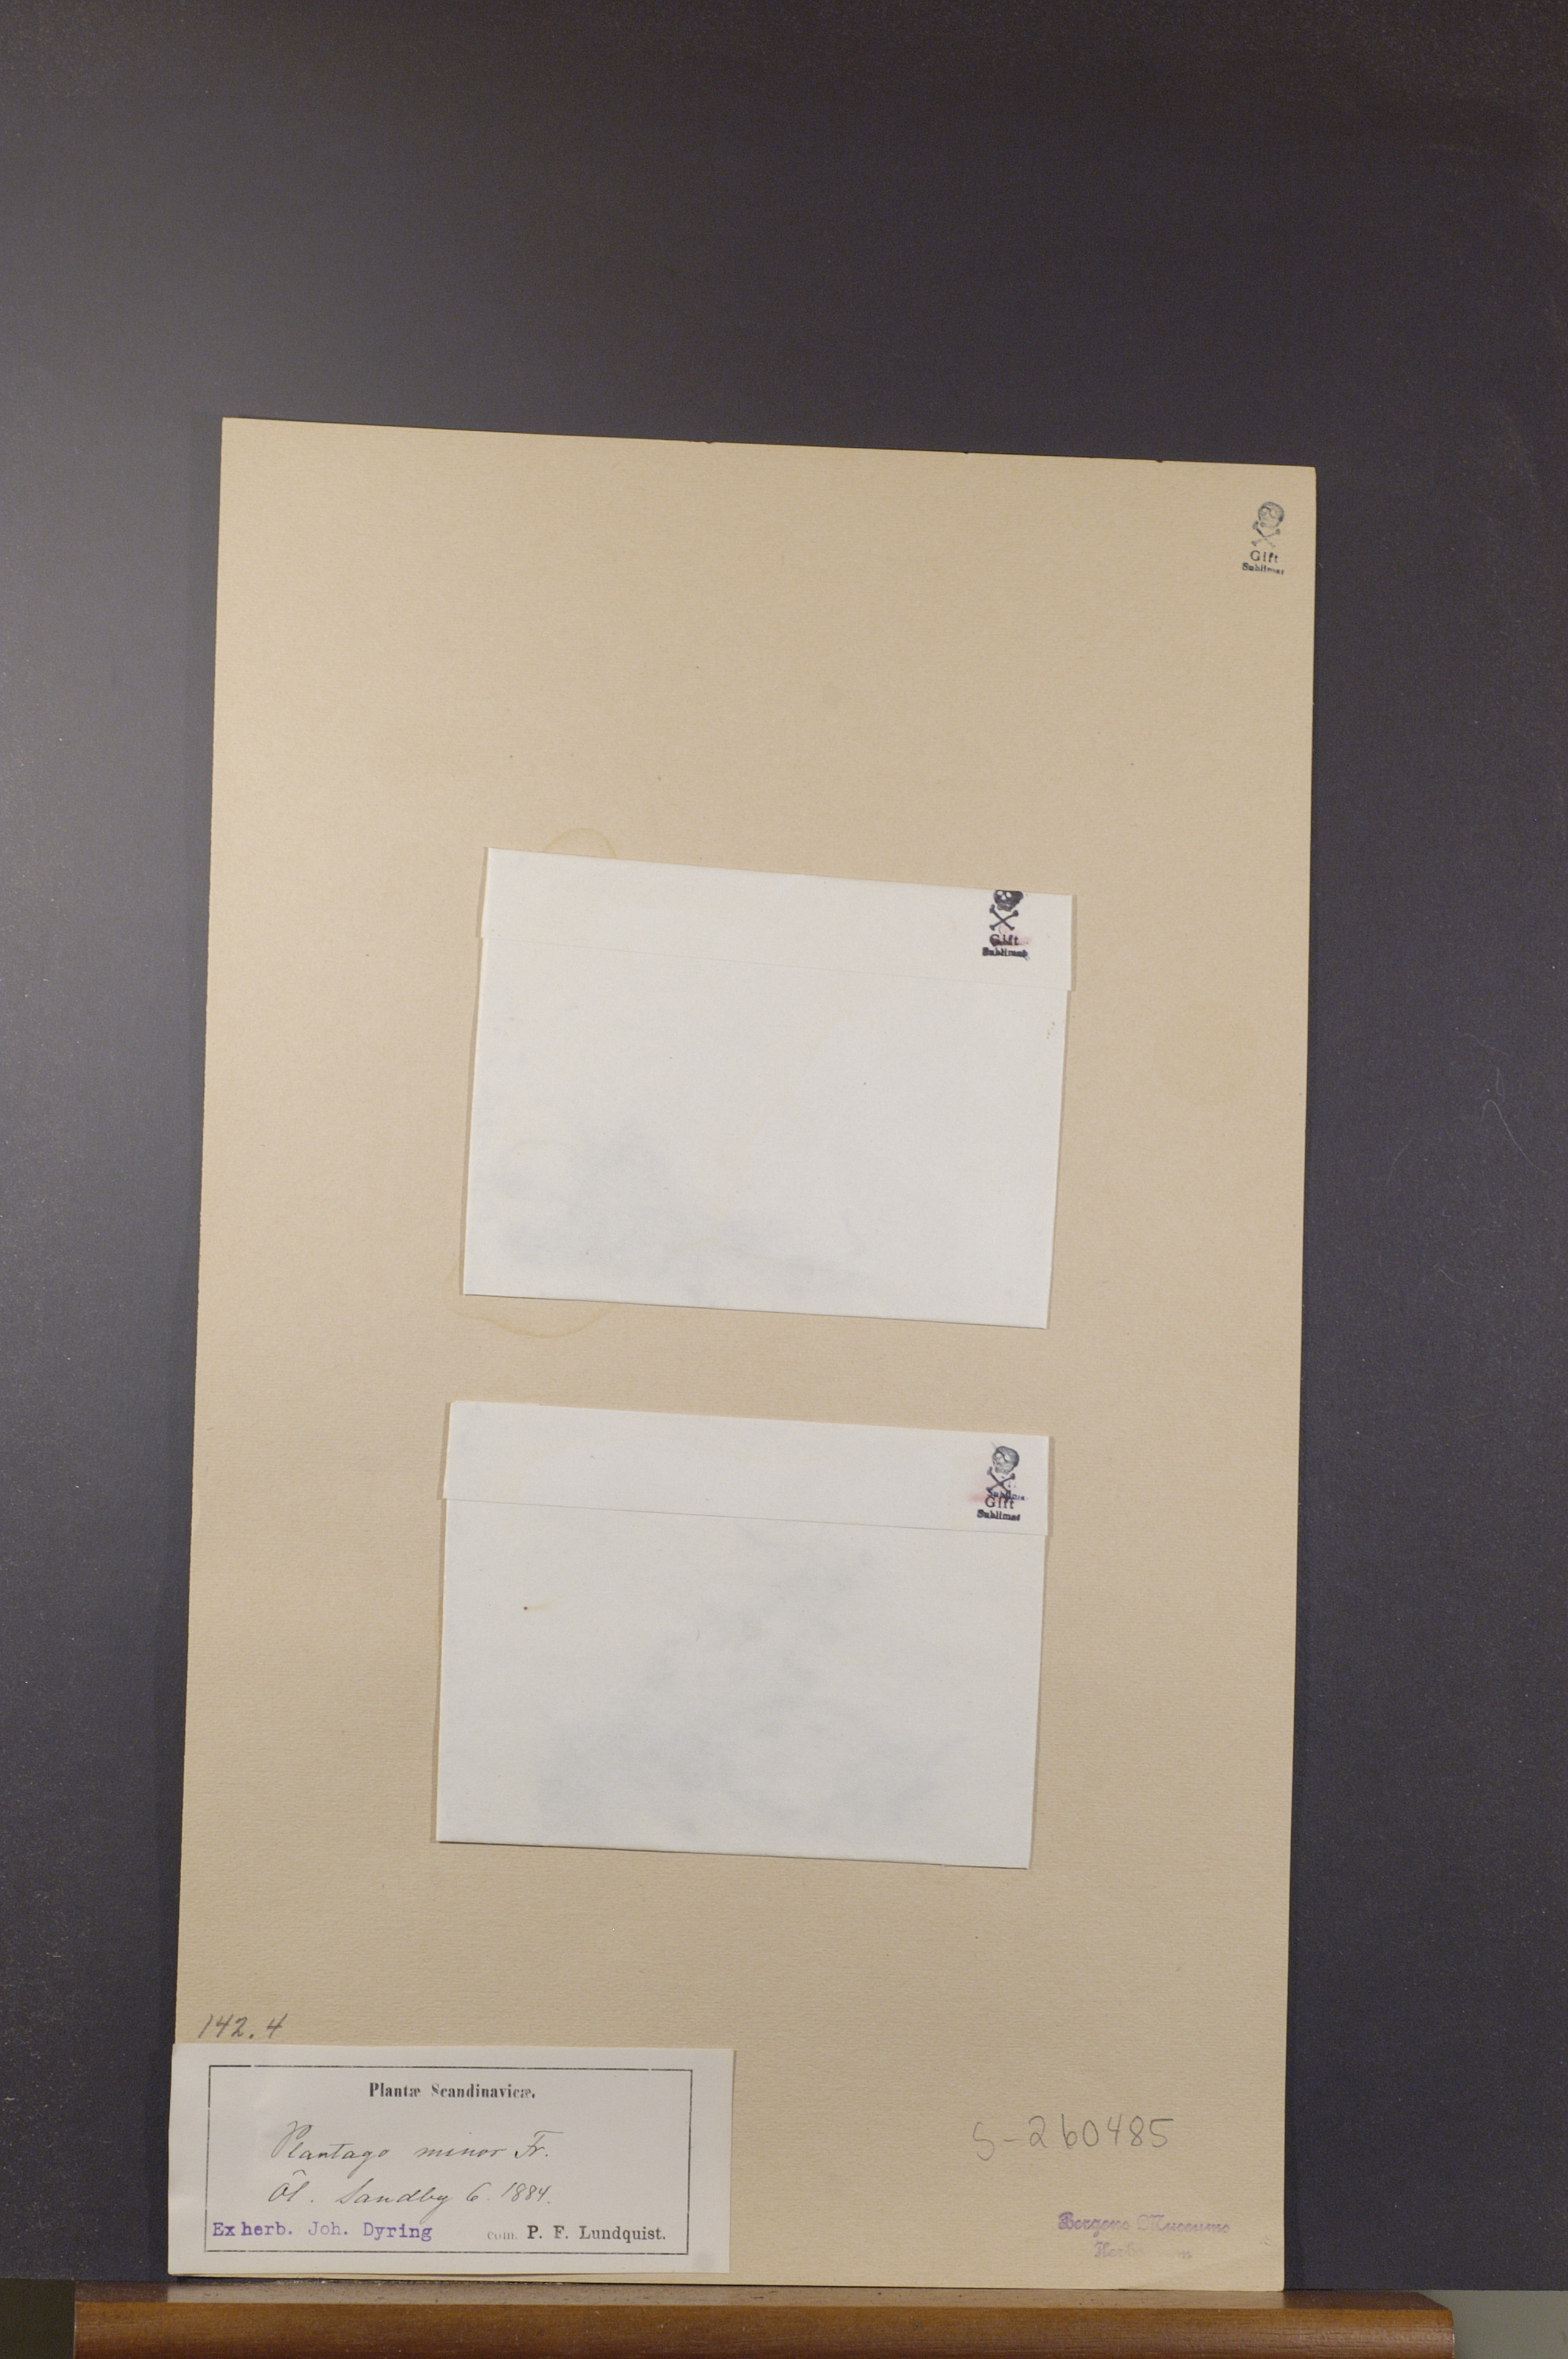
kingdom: Plantae
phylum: Tracheophyta
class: Magnoliopsida
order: Lamiales
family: Plantaginaceae
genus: Plantago
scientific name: Plantago tenuiflora
